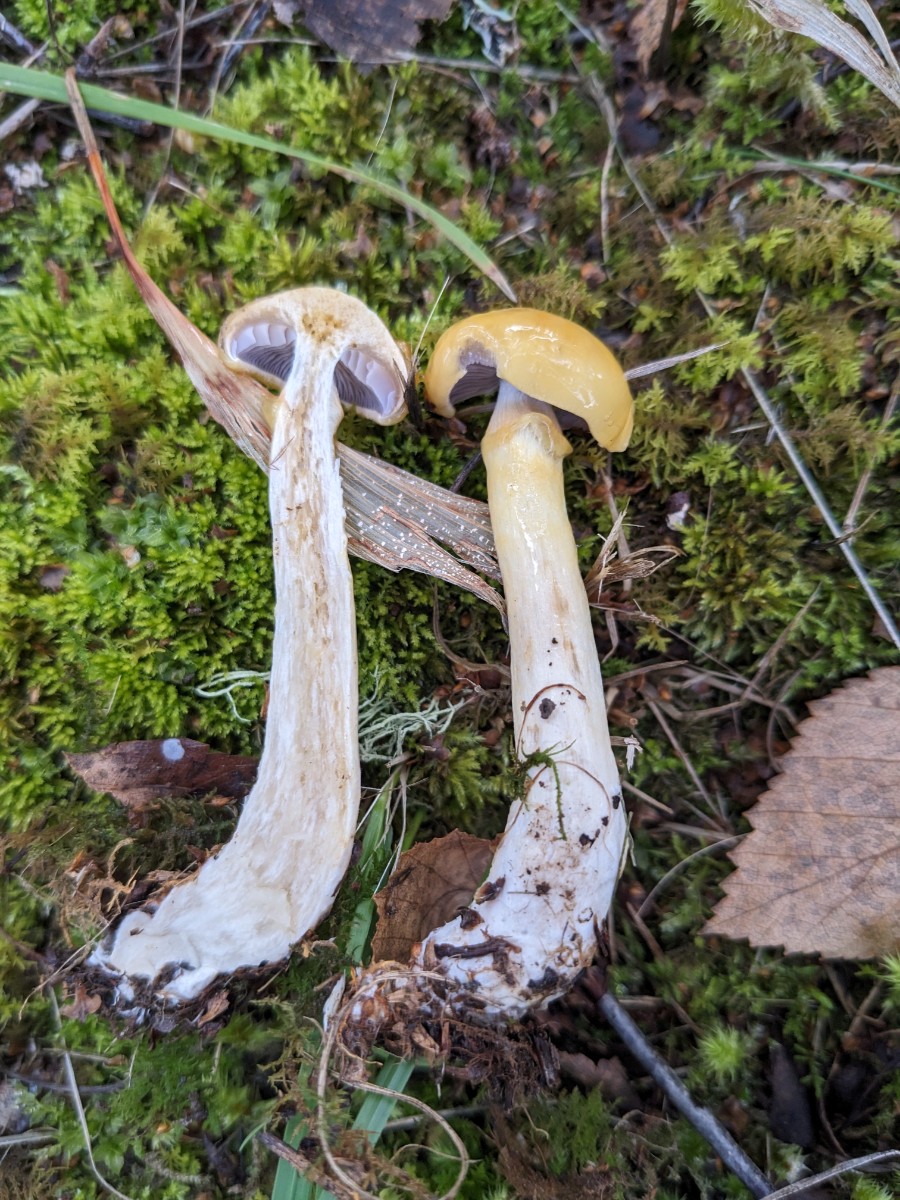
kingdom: Fungi
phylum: Basidiomycota
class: Agaricomycetes
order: Agaricales
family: Cortinariaceae
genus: Cortinarius
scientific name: Cortinarius delibutus
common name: gul slørhat
